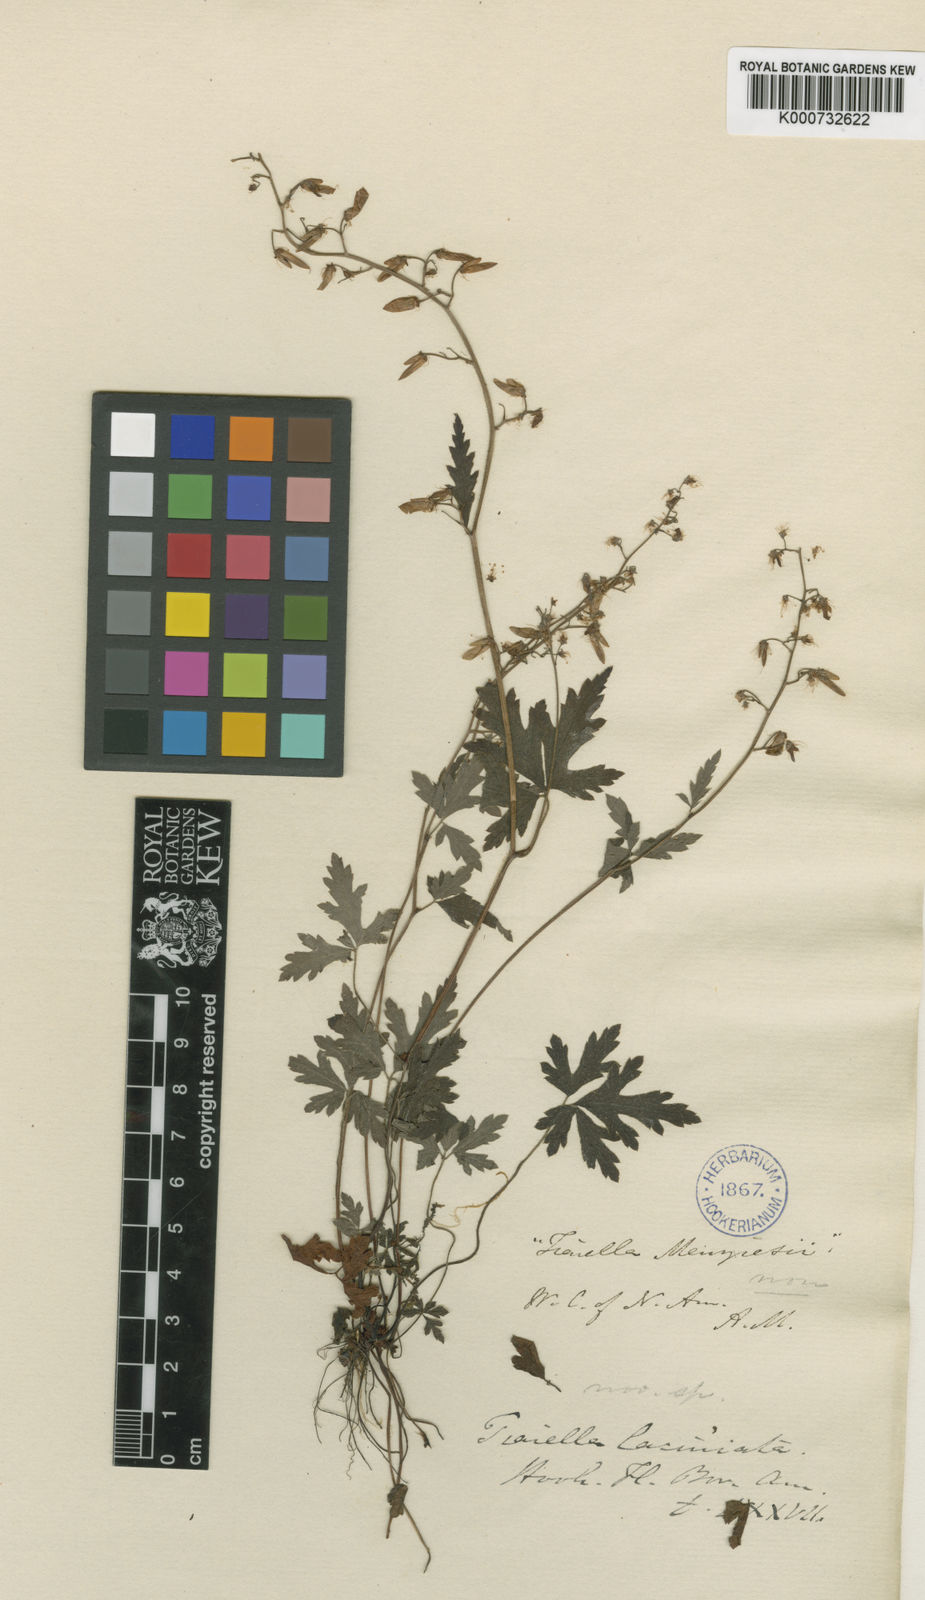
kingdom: Plantae
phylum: Tracheophyta
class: Magnoliopsida
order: Saxifragales
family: Saxifragaceae
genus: Tiarella
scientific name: Tiarella trifoliata
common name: Sugar-scoop
